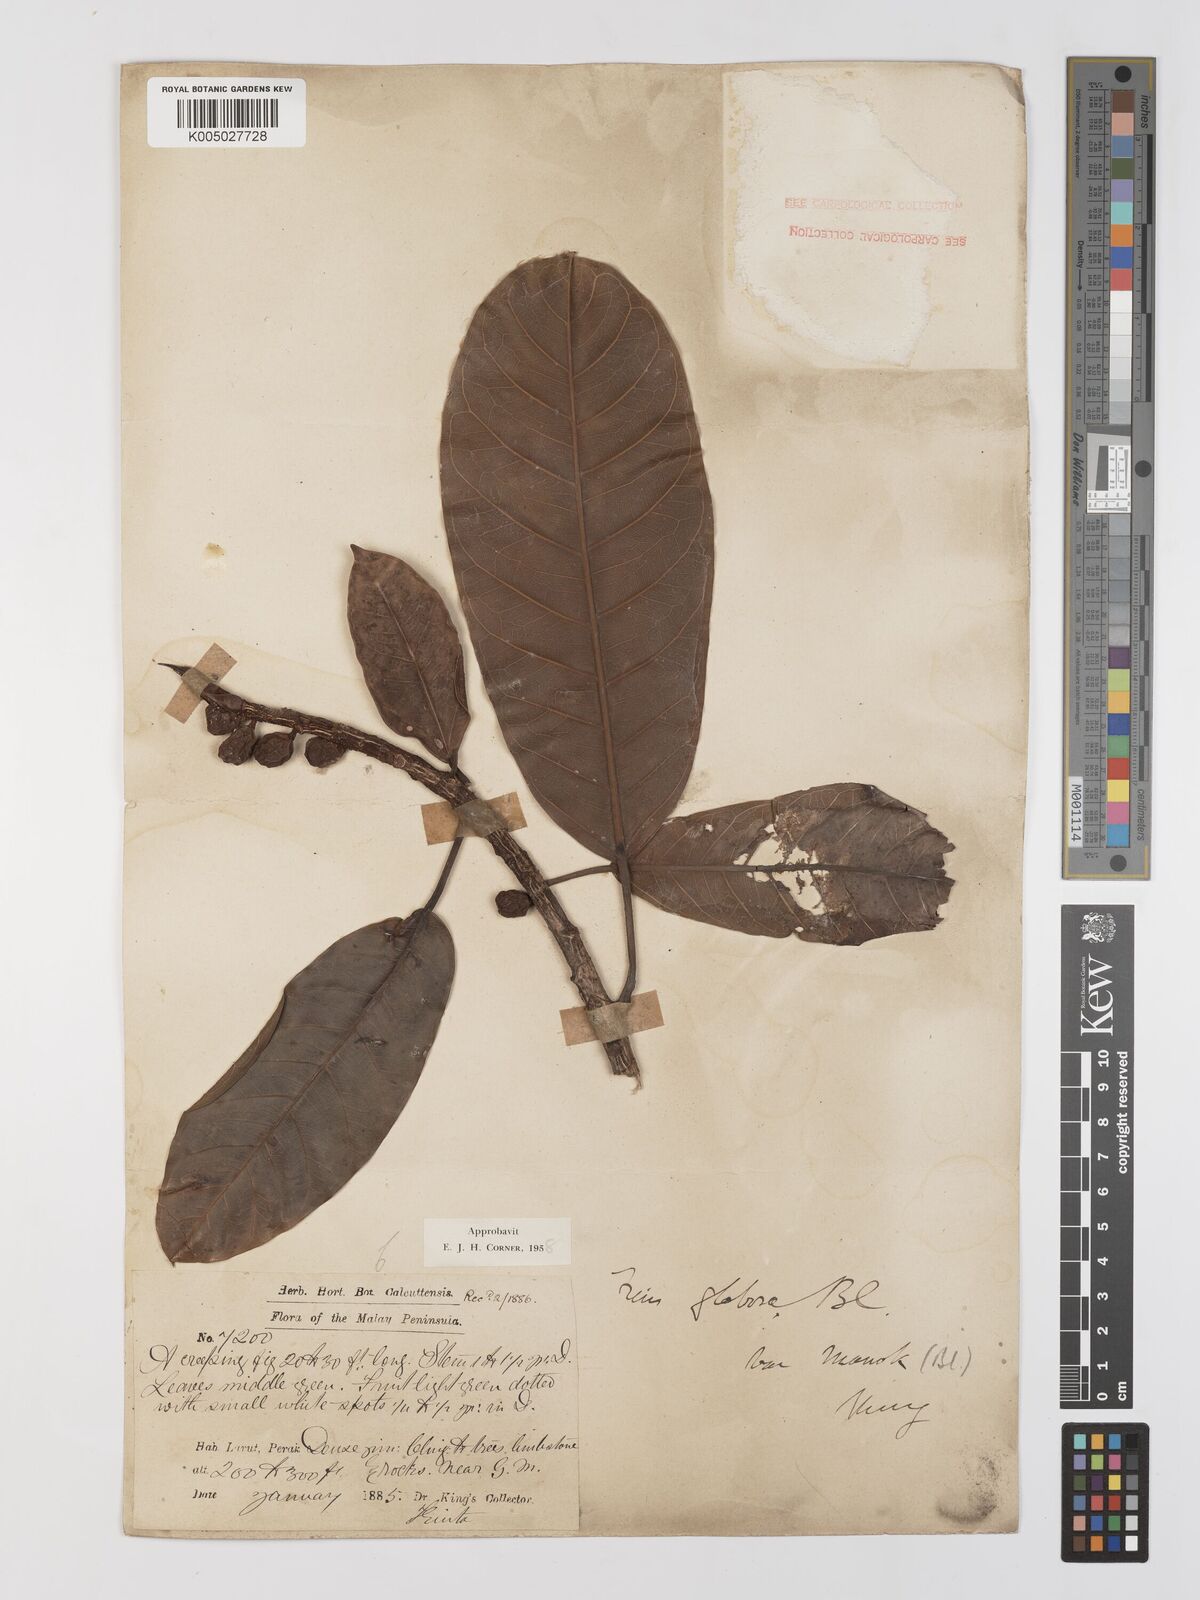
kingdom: Plantae
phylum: Tracheophyta
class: Magnoliopsida
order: Rosales
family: Moraceae
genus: Ficus
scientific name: Ficus
